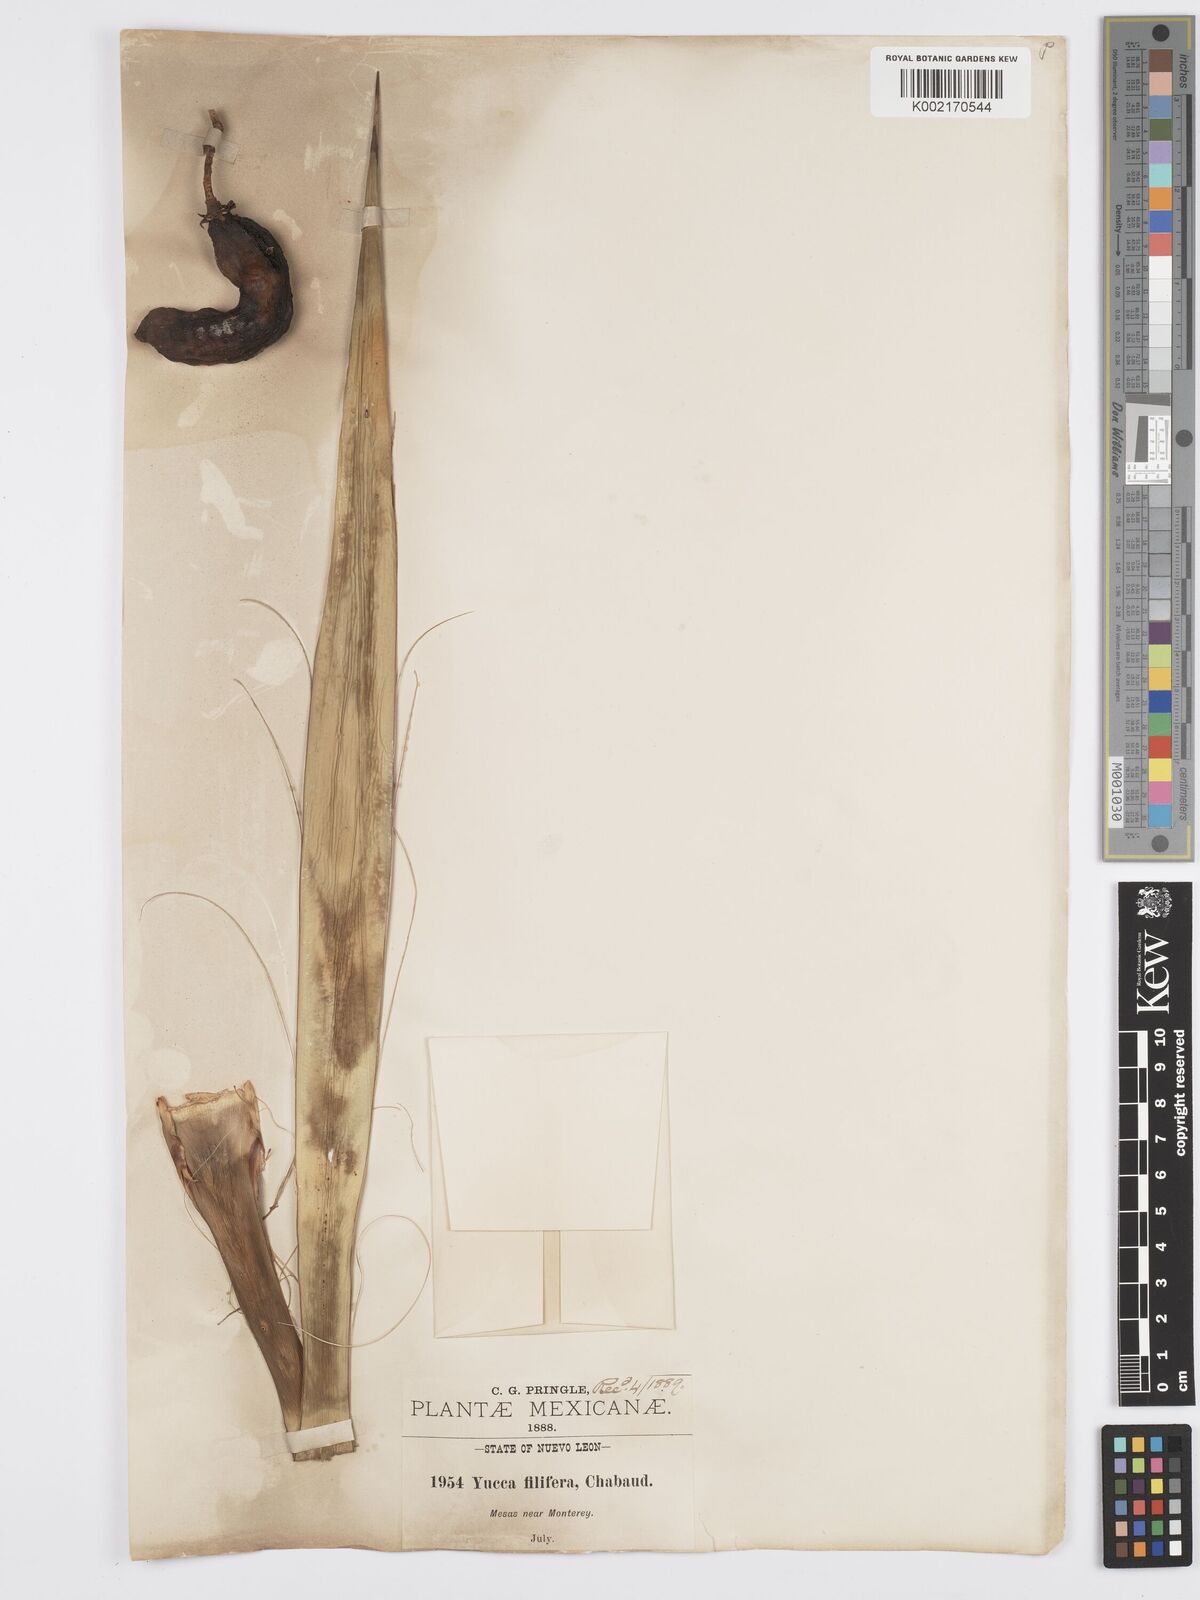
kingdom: Plantae
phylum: Tracheophyta
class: Liliopsida
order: Asparagales
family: Asparagaceae
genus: Yucca
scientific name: Yucca filifera
